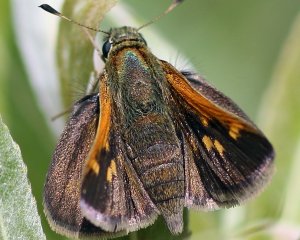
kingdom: Animalia
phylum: Arthropoda
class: Insecta
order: Lepidoptera
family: Hesperiidae
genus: Polites
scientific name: Polites themistocles
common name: Tawny-edged Skipper
